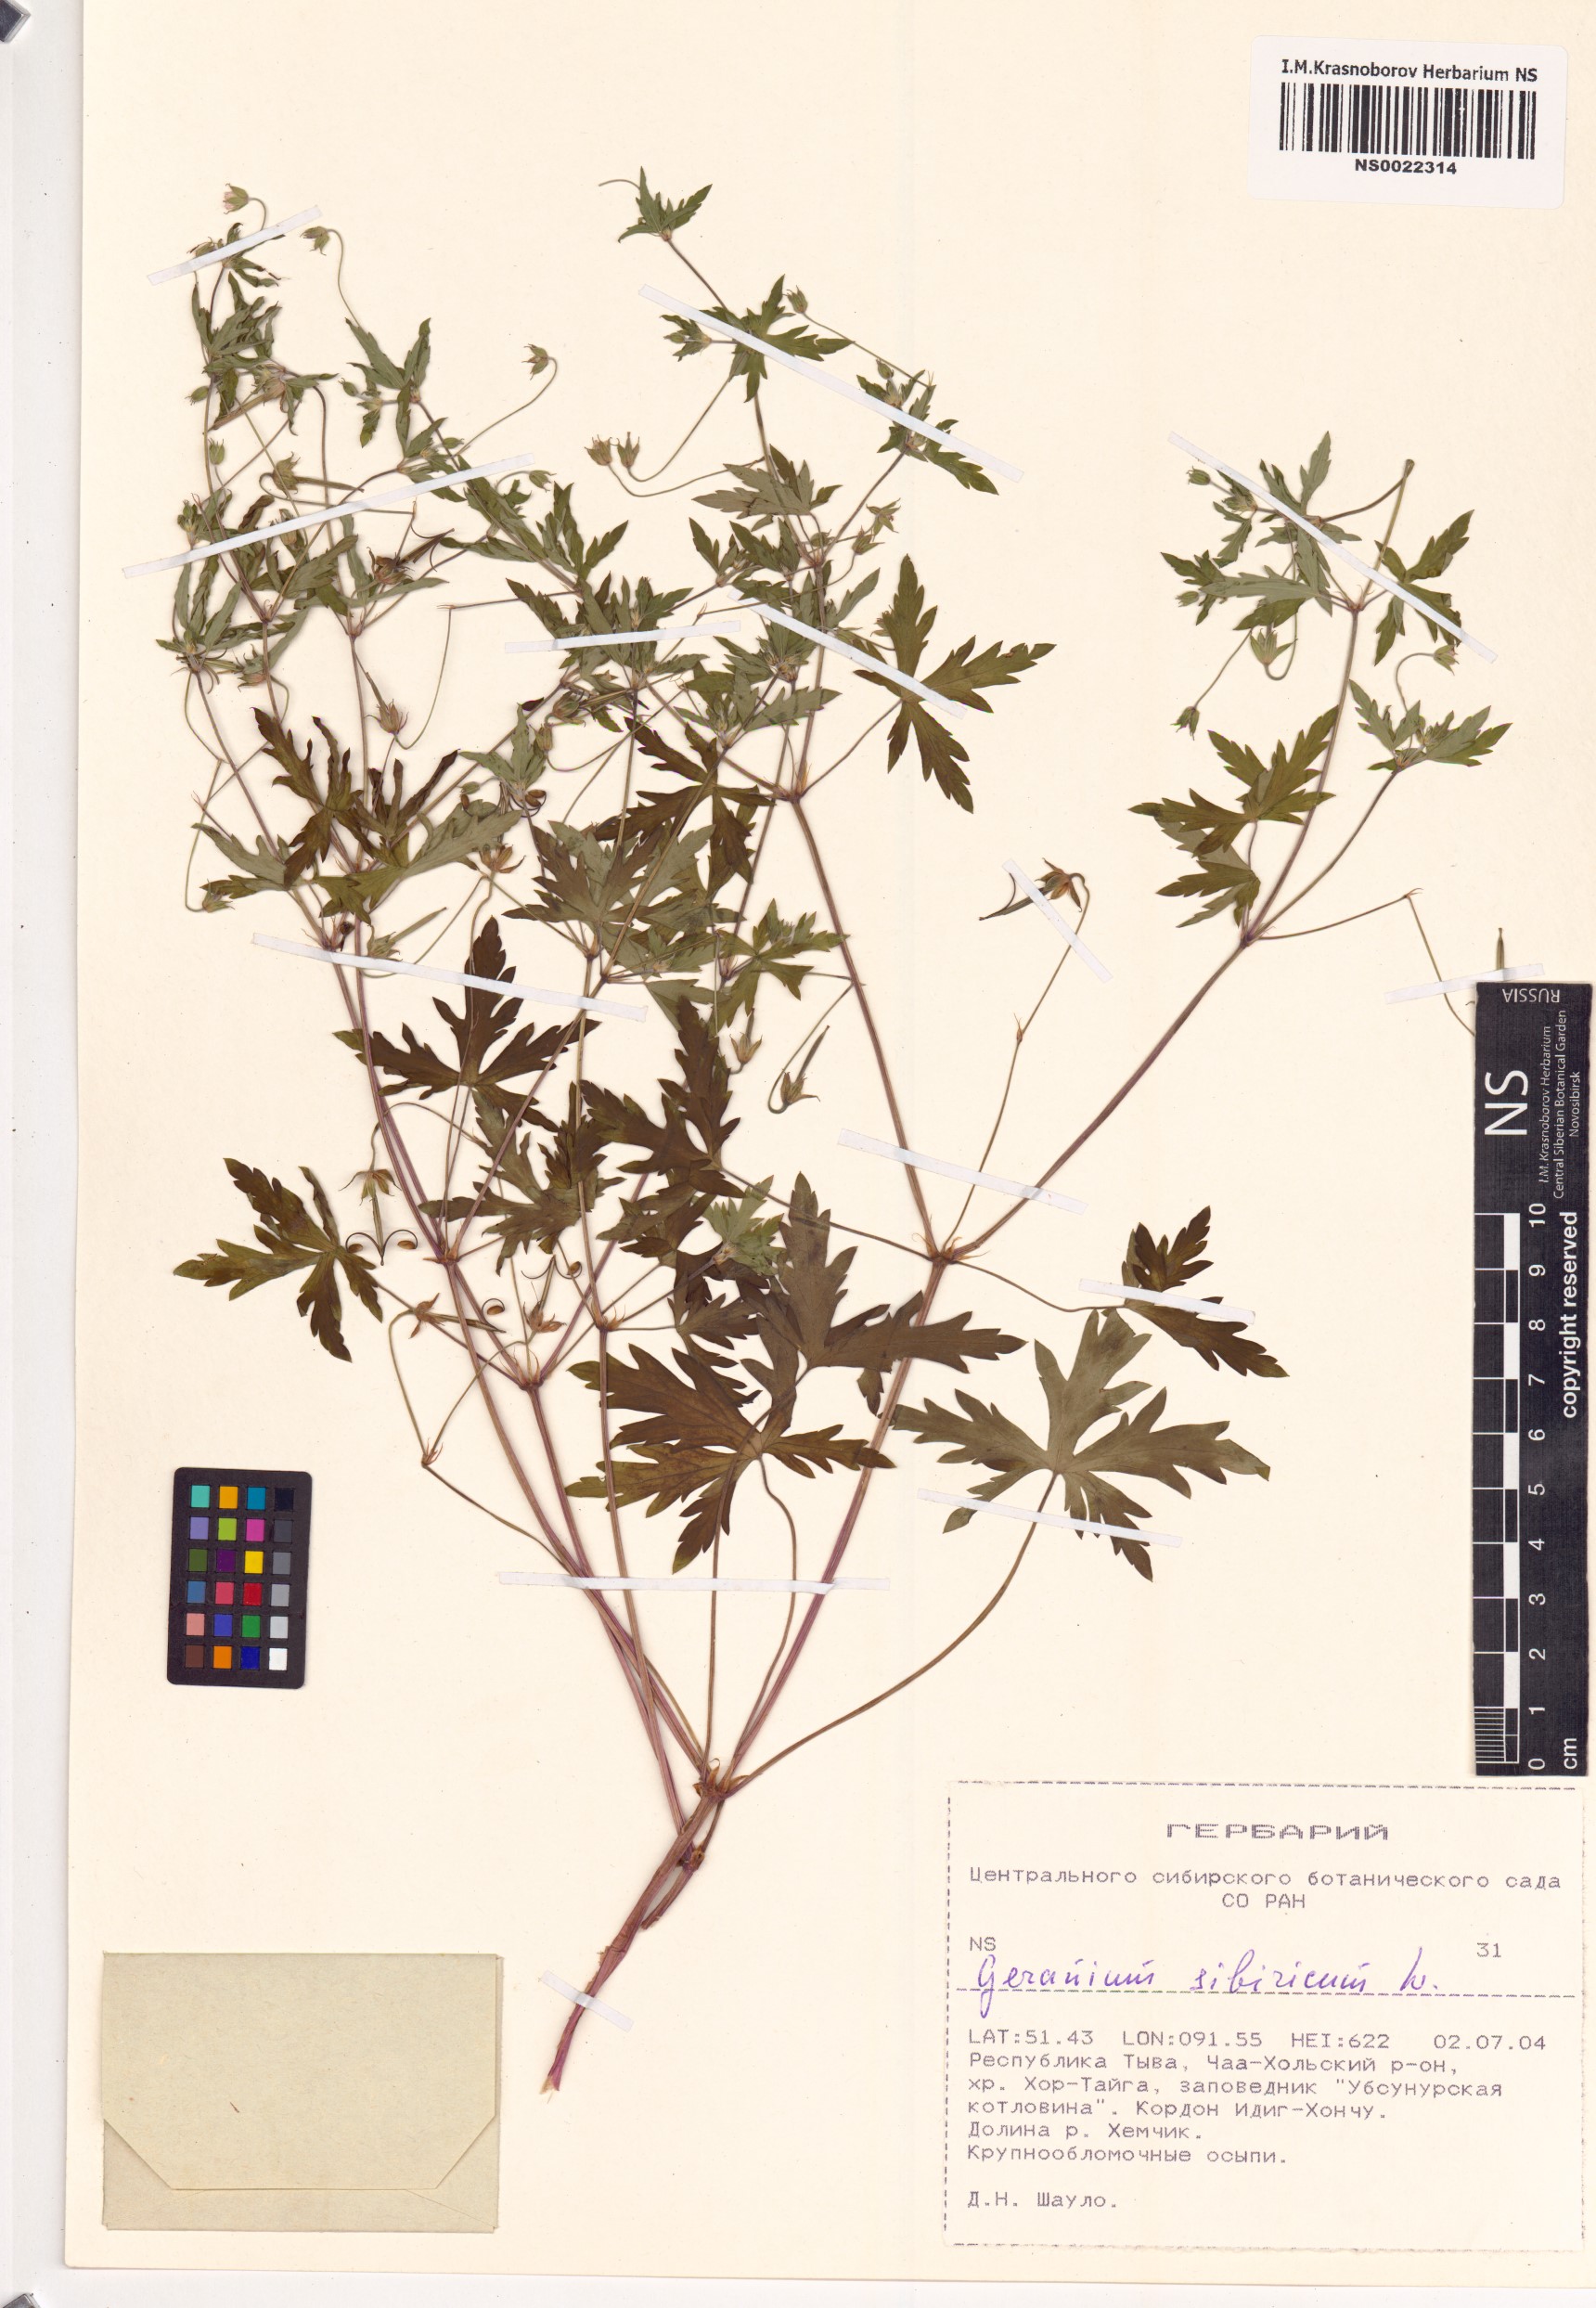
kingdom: Plantae
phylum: Tracheophyta
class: Magnoliopsida
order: Geraniales
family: Geraniaceae
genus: Geranium
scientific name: Geranium sibiricum
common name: Siberian crane's-bill
